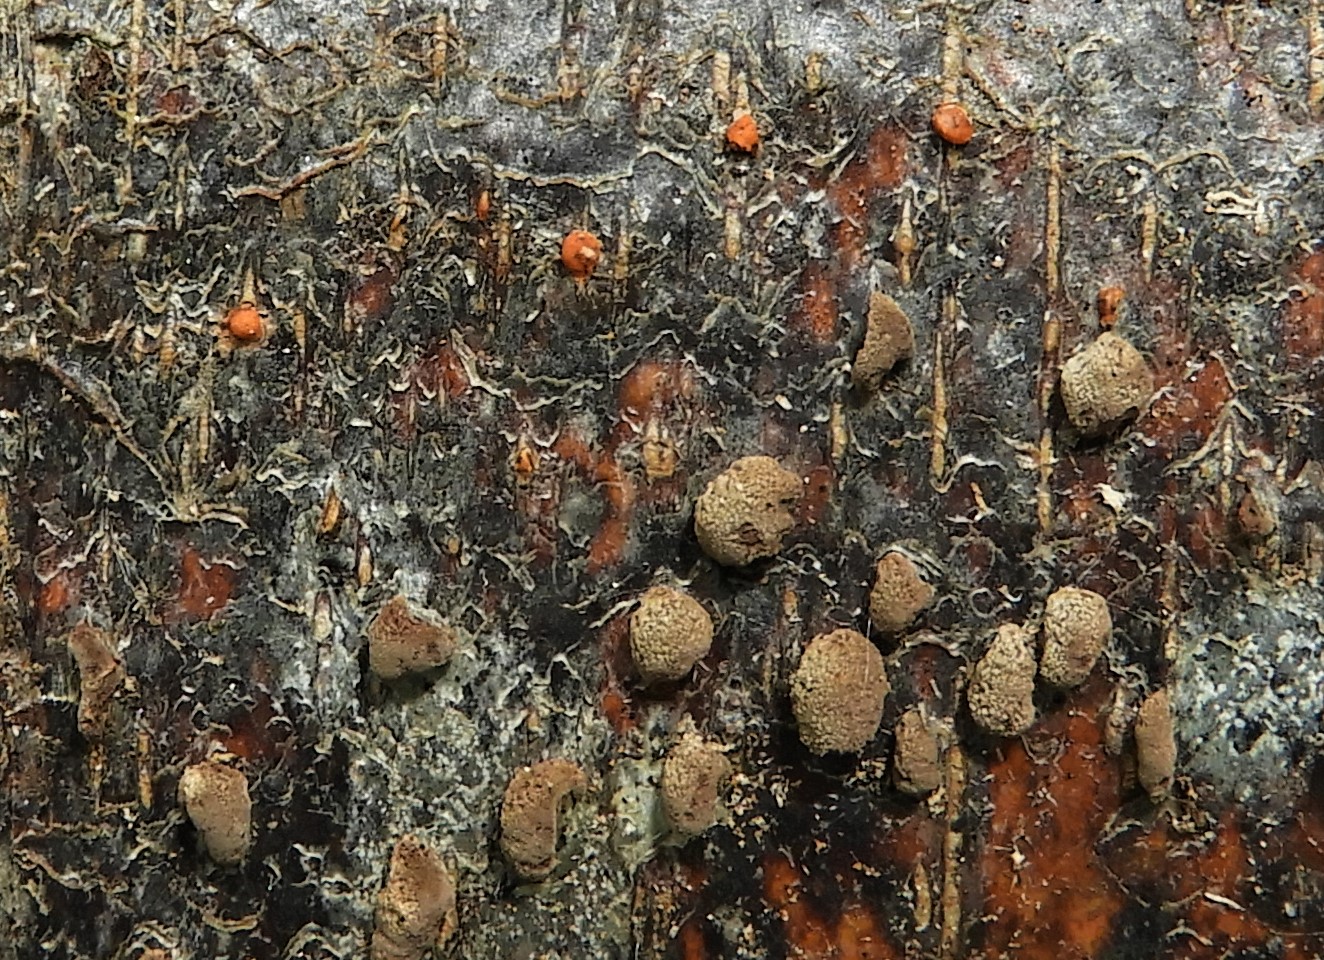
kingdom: Fungi
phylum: Ascomycota
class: Sordariomycetes
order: Hypocreales
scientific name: Hypocreales
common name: kødkerneordenen
